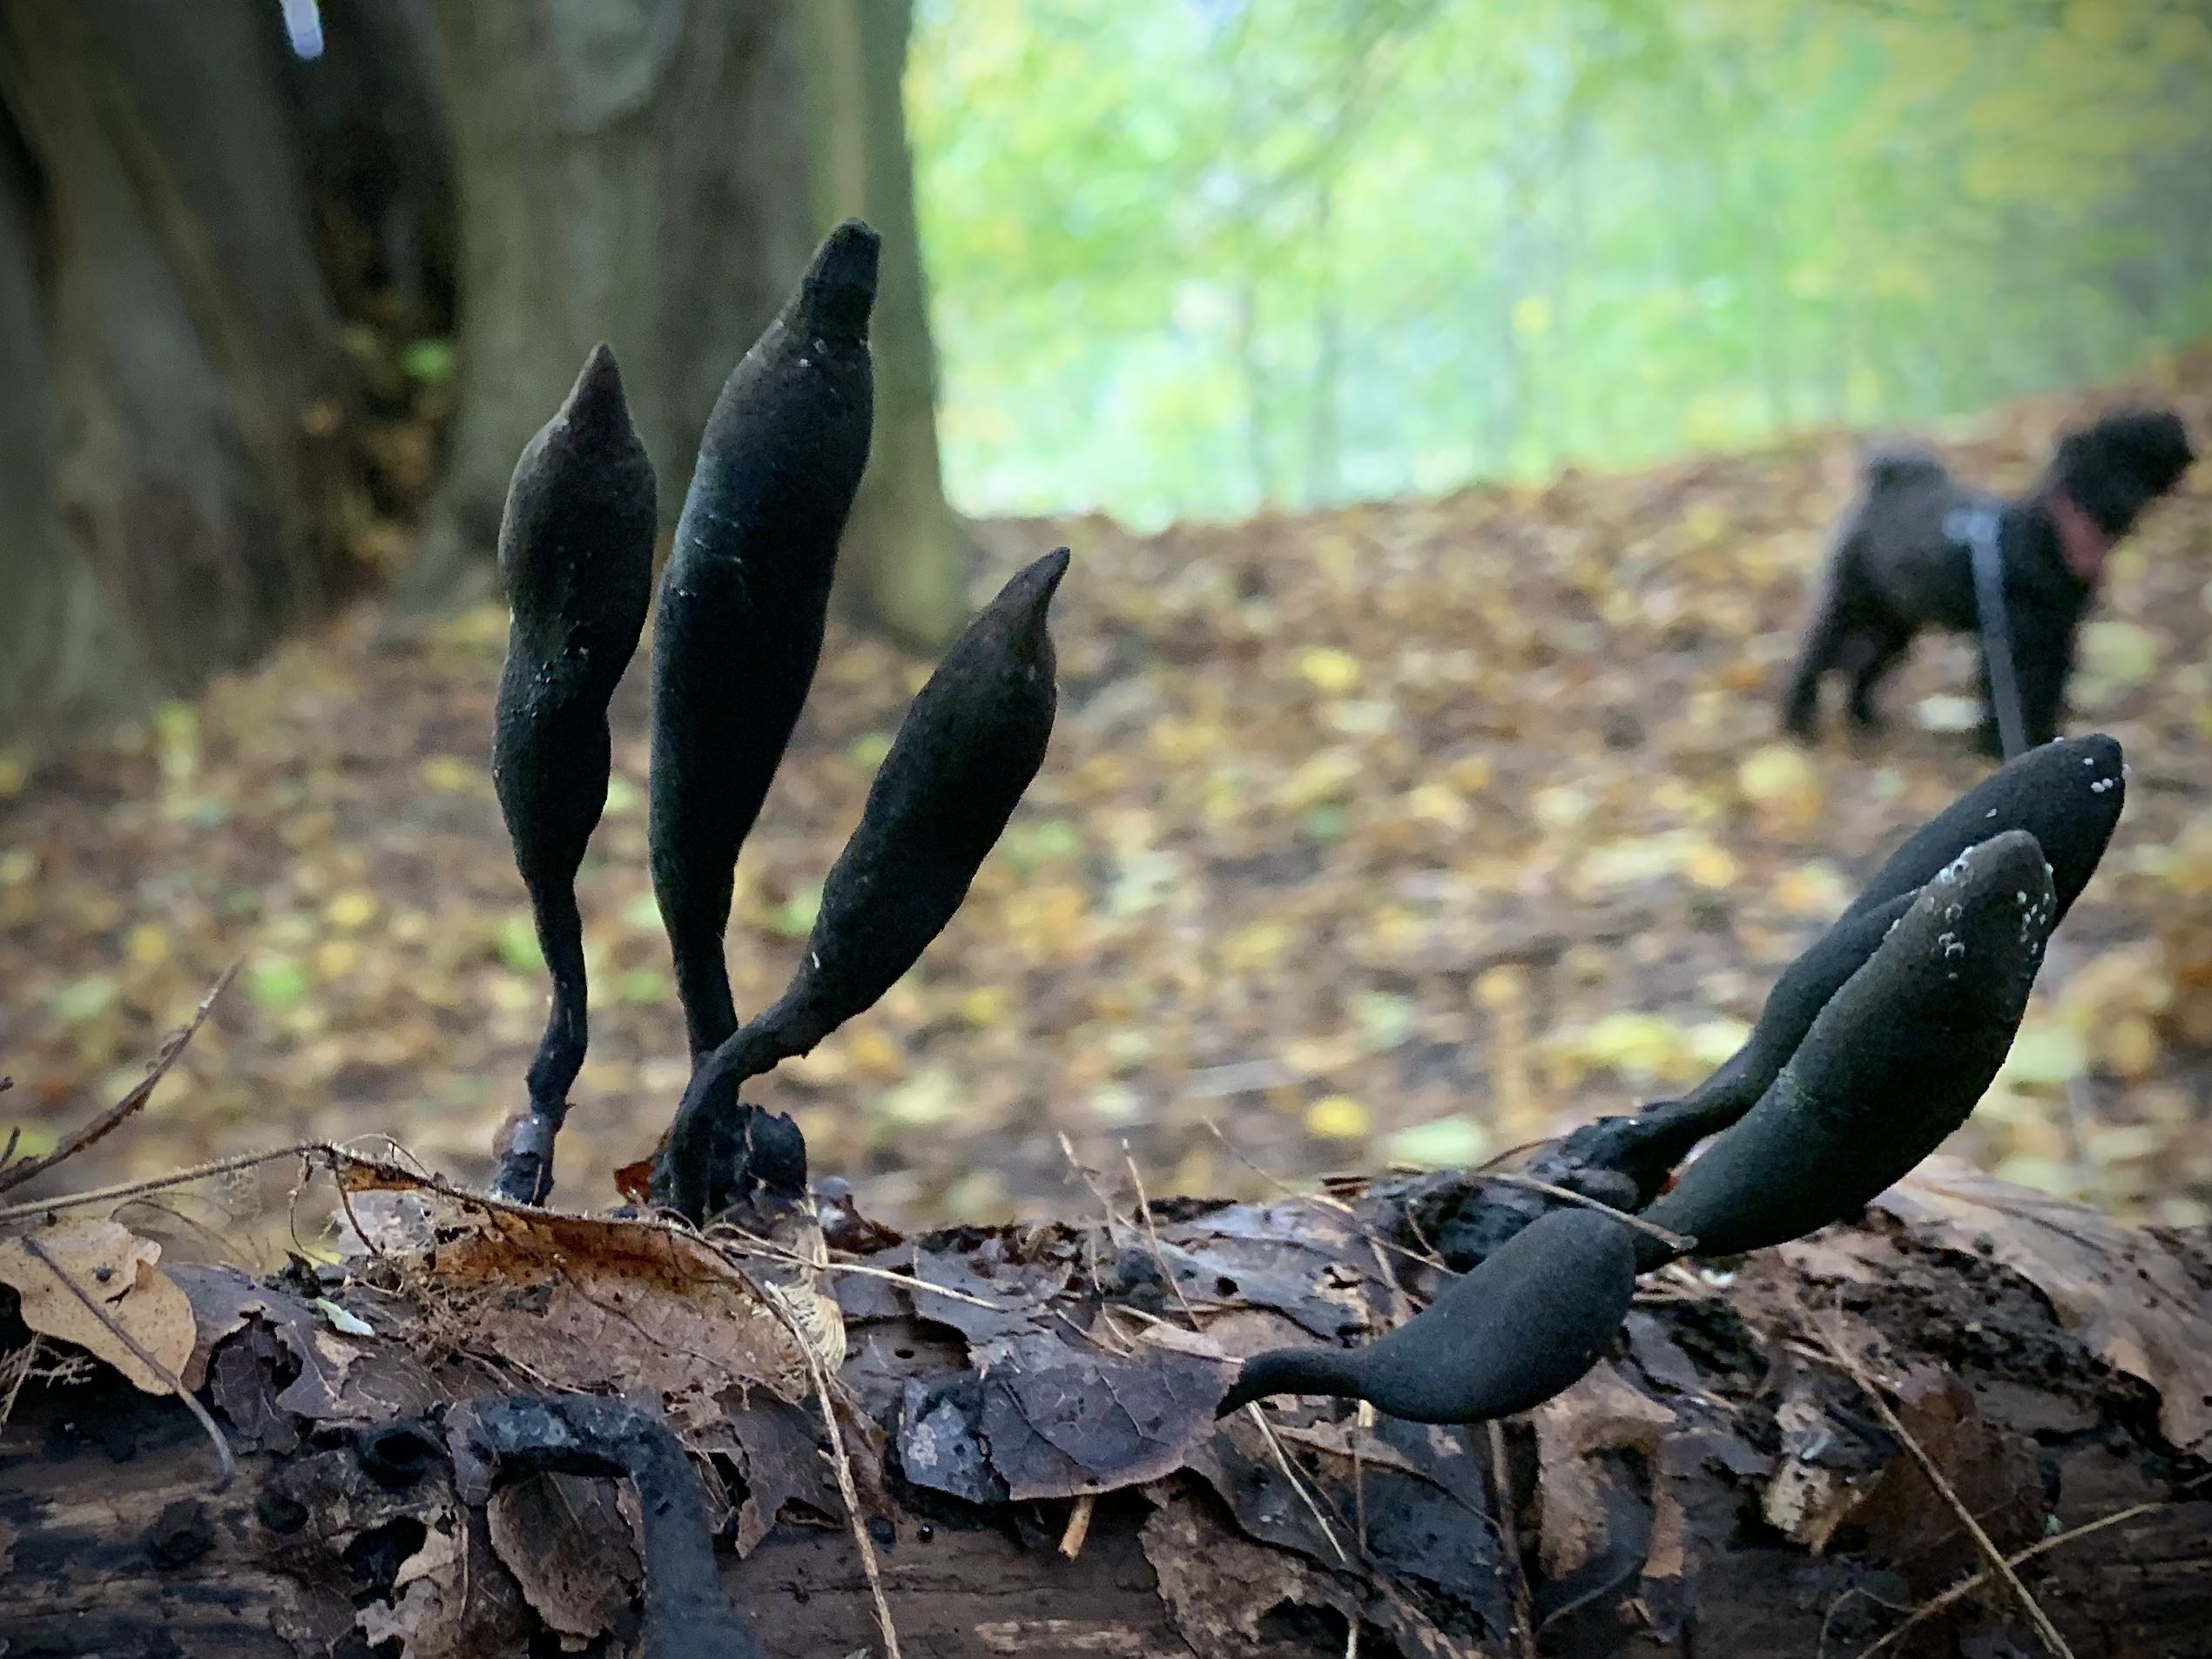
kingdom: Fungi
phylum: Ascomycota
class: Sordariomycetes
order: Xylariales
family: Xylariaceae
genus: Xylaria
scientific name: Xylaria longipes
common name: slank stødsvamp
